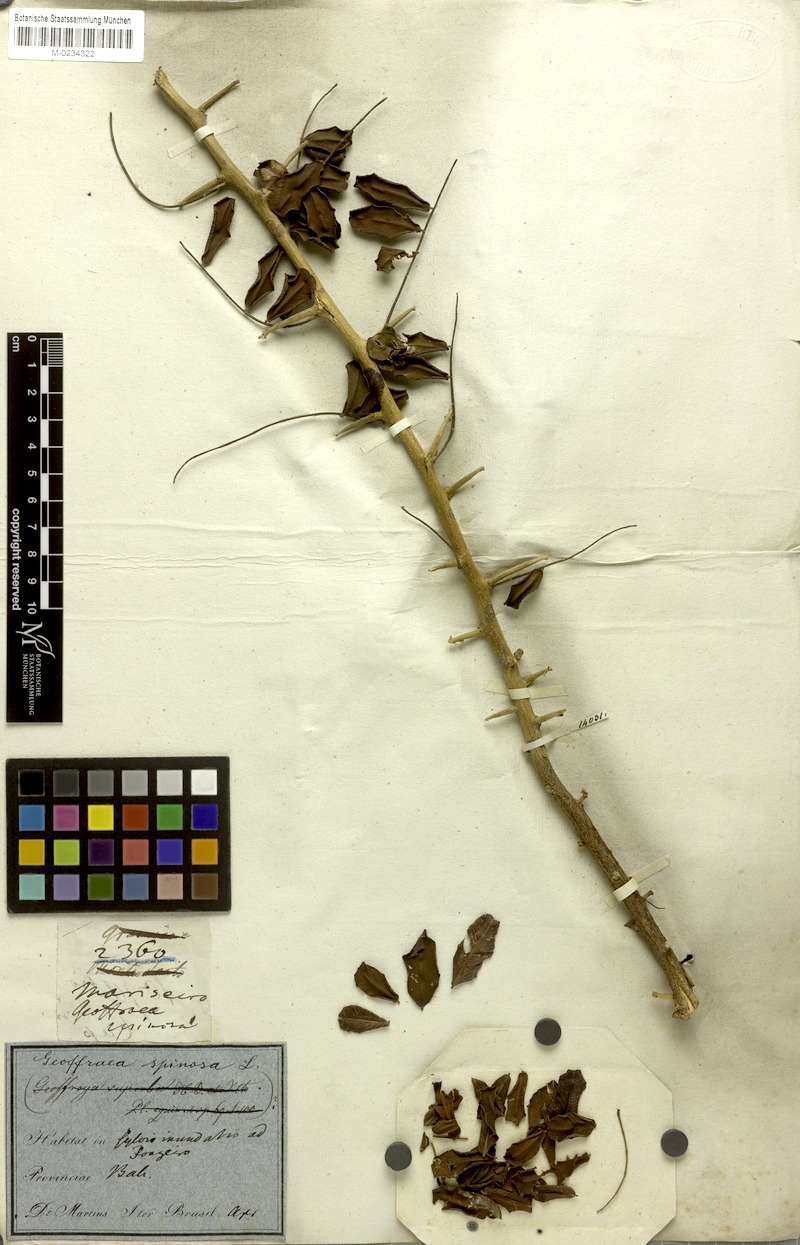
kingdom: Plantae
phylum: Tracheophyta
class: Magnoliopsida
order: Fabales
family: Fabaceae
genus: Geoffroea
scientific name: Geoffroea spinosa
